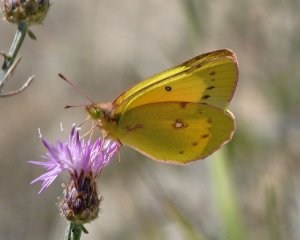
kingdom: Animalia
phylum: Arthropoda
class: Insecta
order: Lepidoptera
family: Pieridae
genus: Colias
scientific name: Colias philodice
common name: Clouded Sulphur
